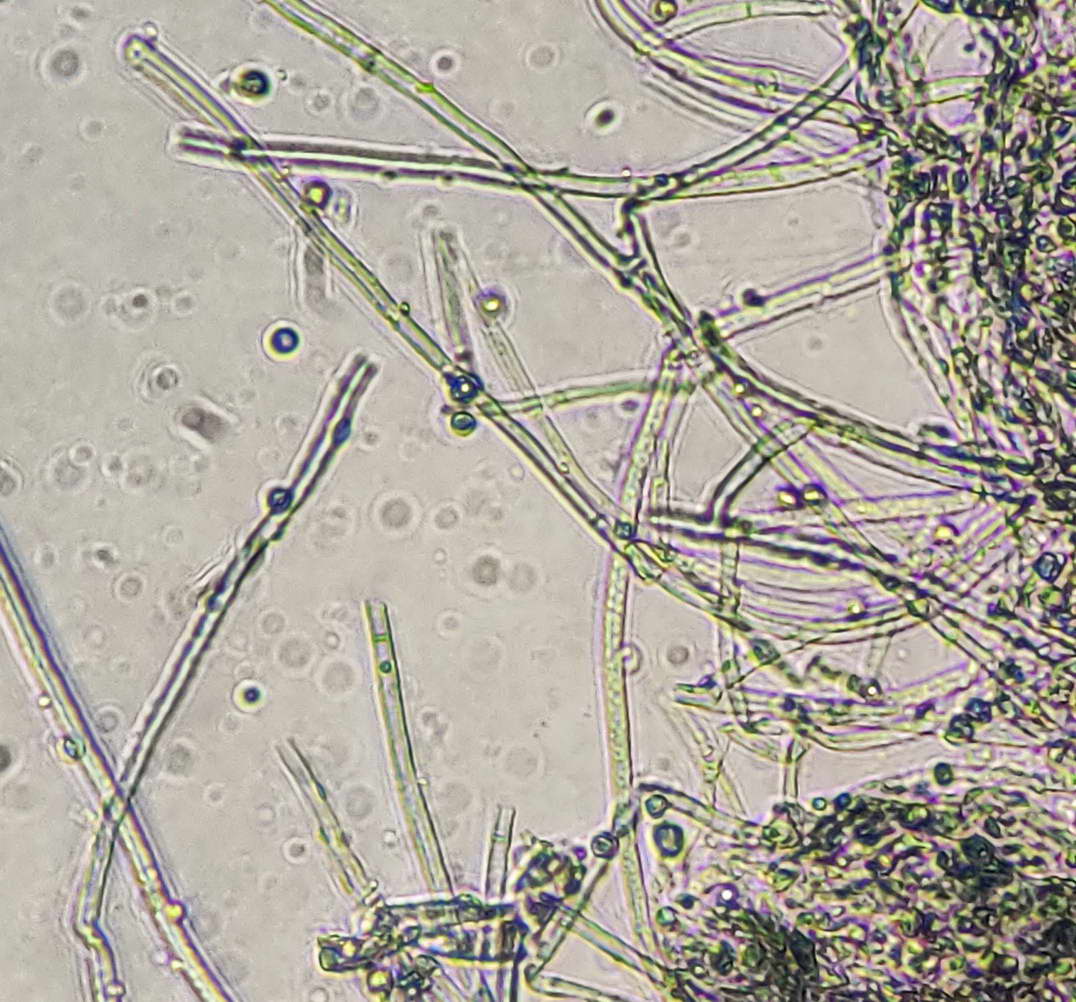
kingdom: Fungi
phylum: Basidiomycota
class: Agaricomycetes
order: Atheliales
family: Atheliaceae
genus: Byssocorticium
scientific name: Byssocorticium atrovirens
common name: blå førnehinde
